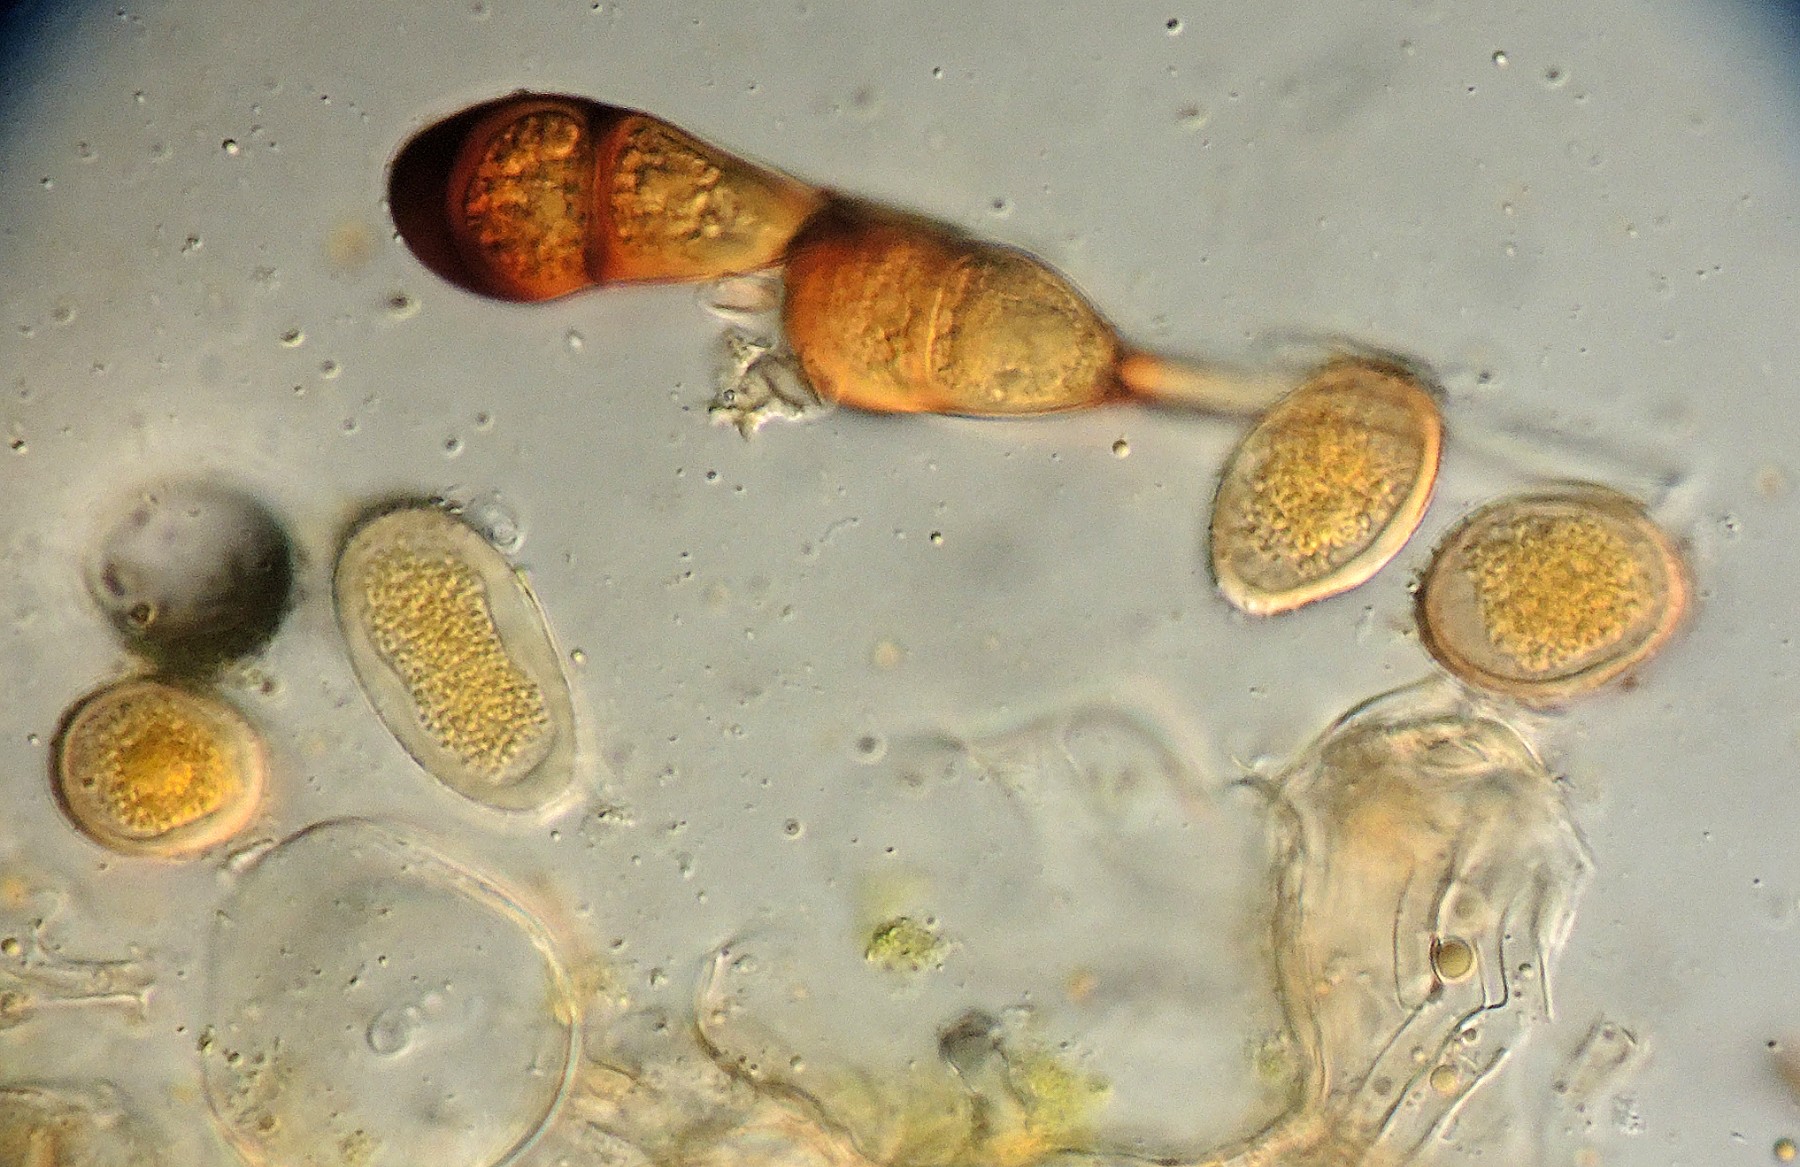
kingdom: Fungi
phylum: Basidiomycota
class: Pucciniomycetes
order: Pucciniales
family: Pucciniaceae
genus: Puccinia
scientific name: Puccinia graminis
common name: græssernes tvecellerust
